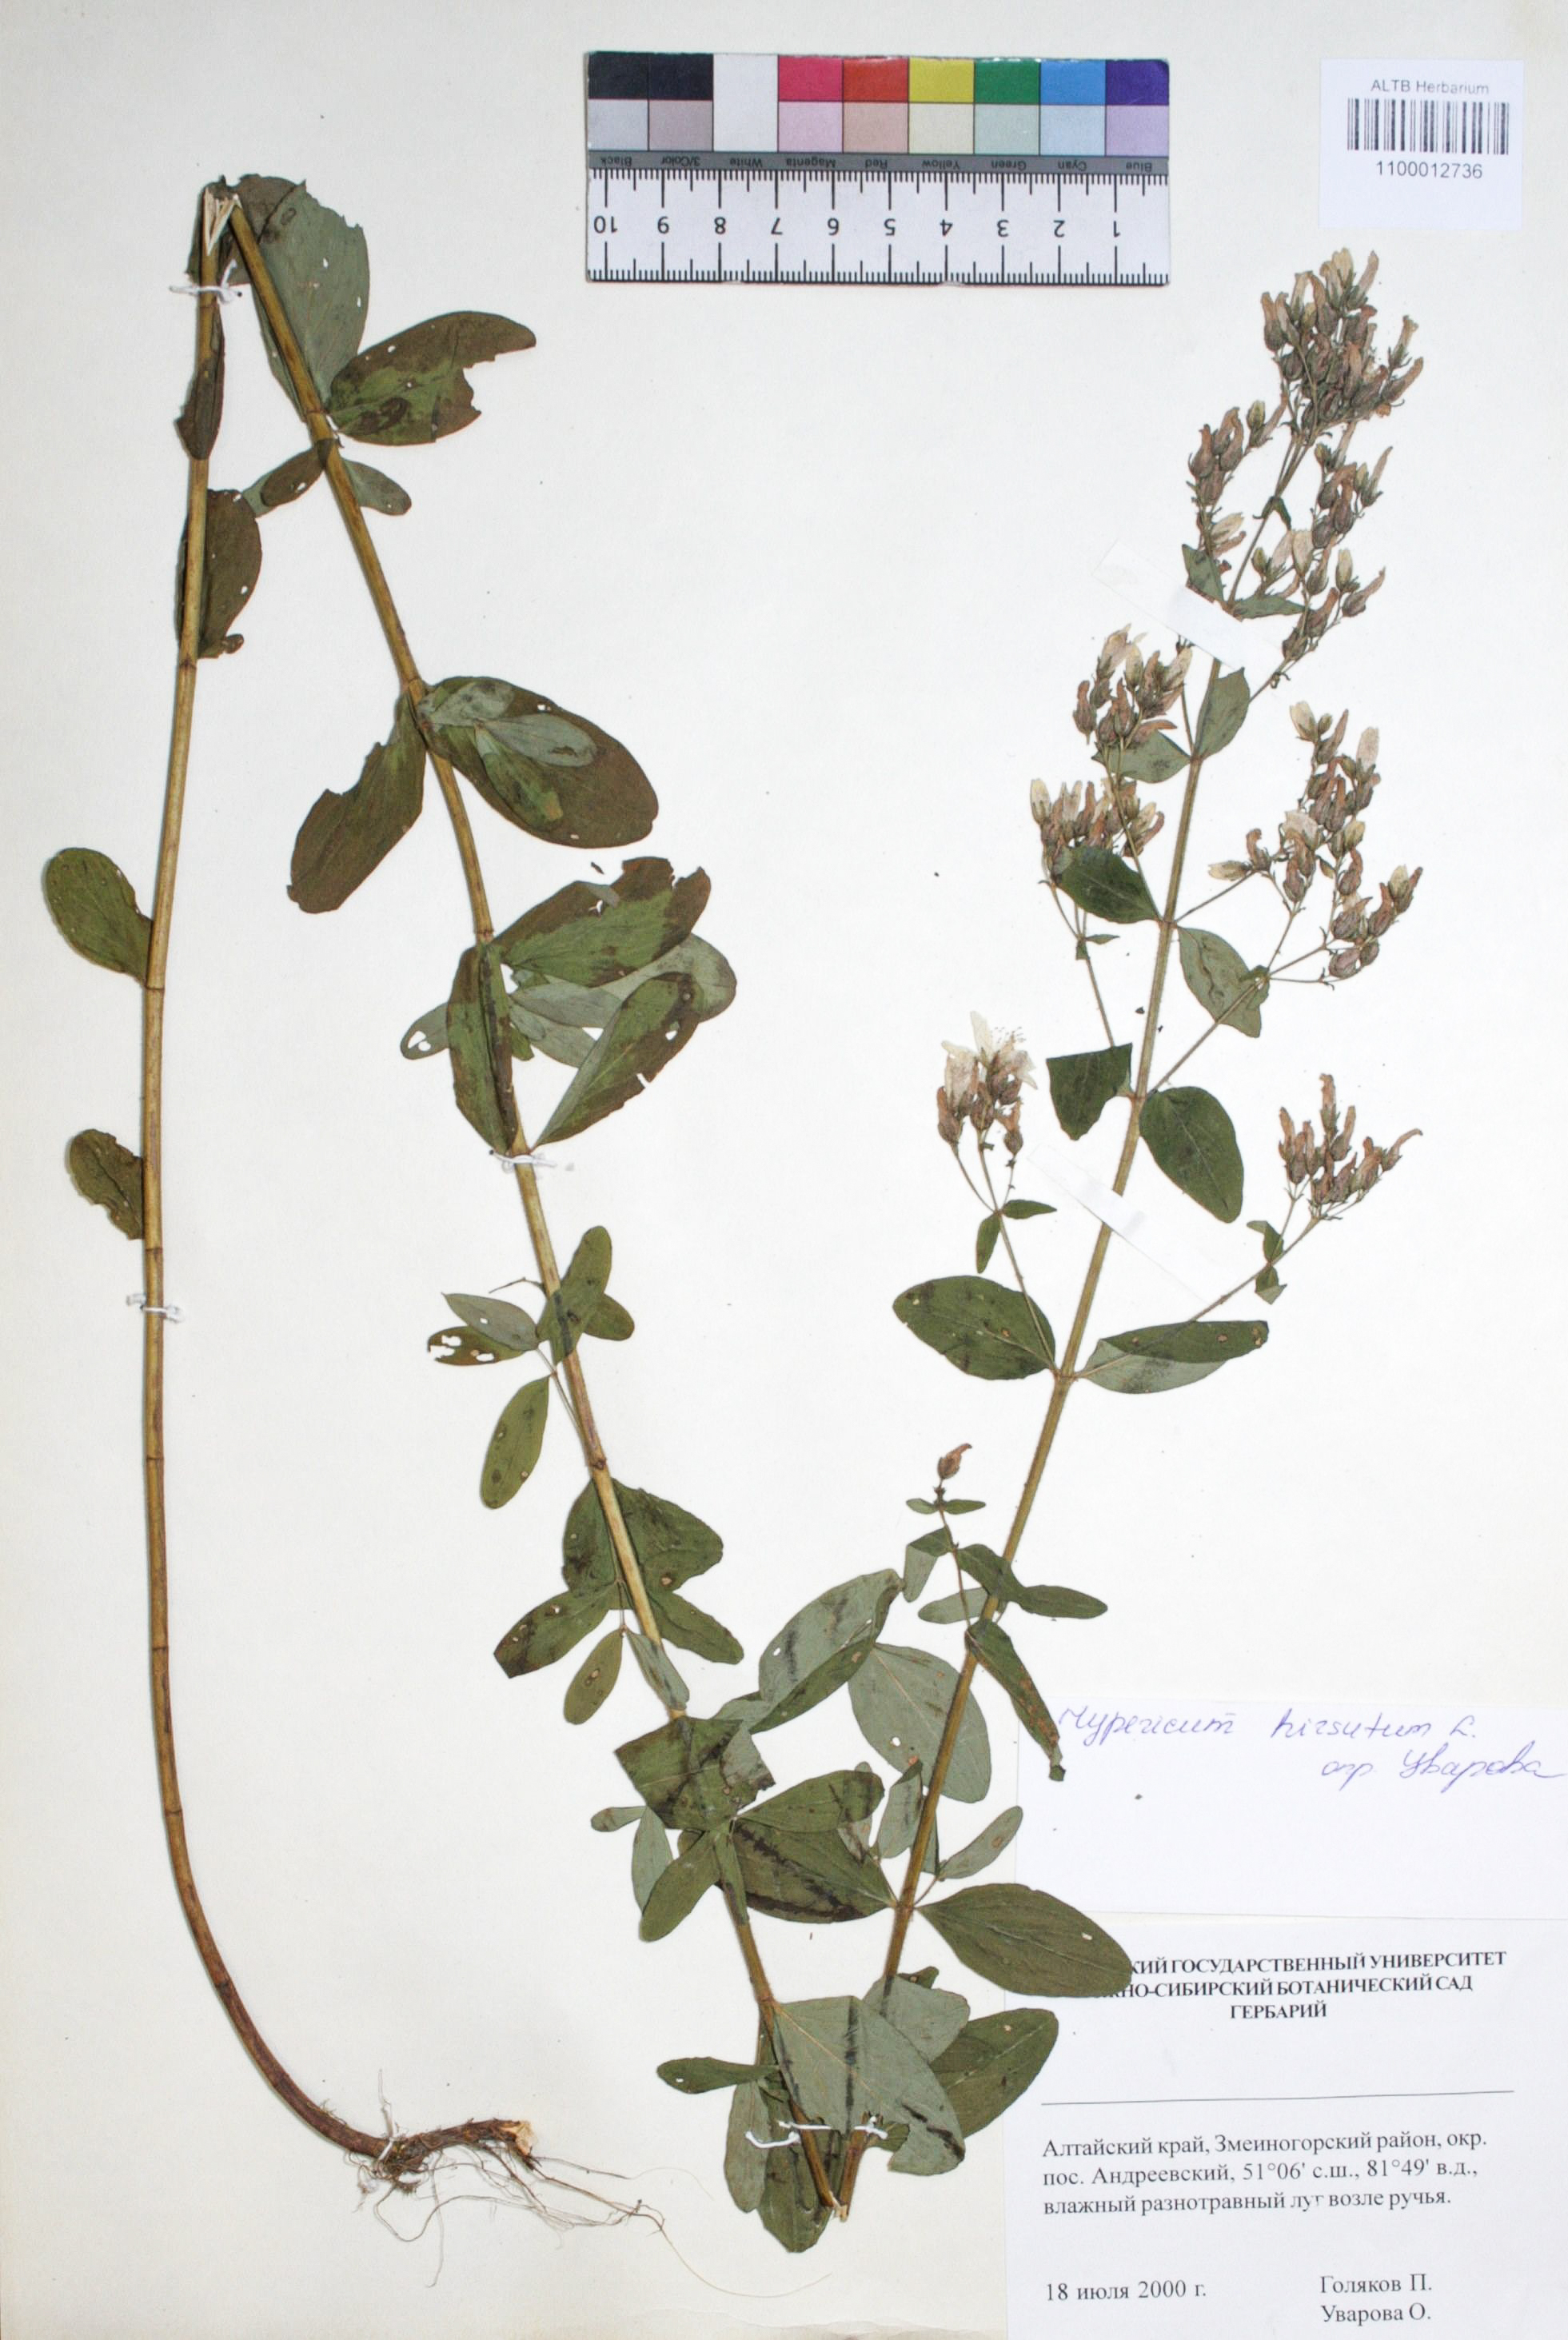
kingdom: Plantae
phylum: Tracheophyta
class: Magnoliopsida
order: Malpighiales
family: Hypericaceae
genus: Hypericum
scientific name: Hypericum hirsutum
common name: Hairy st. john's-wort
